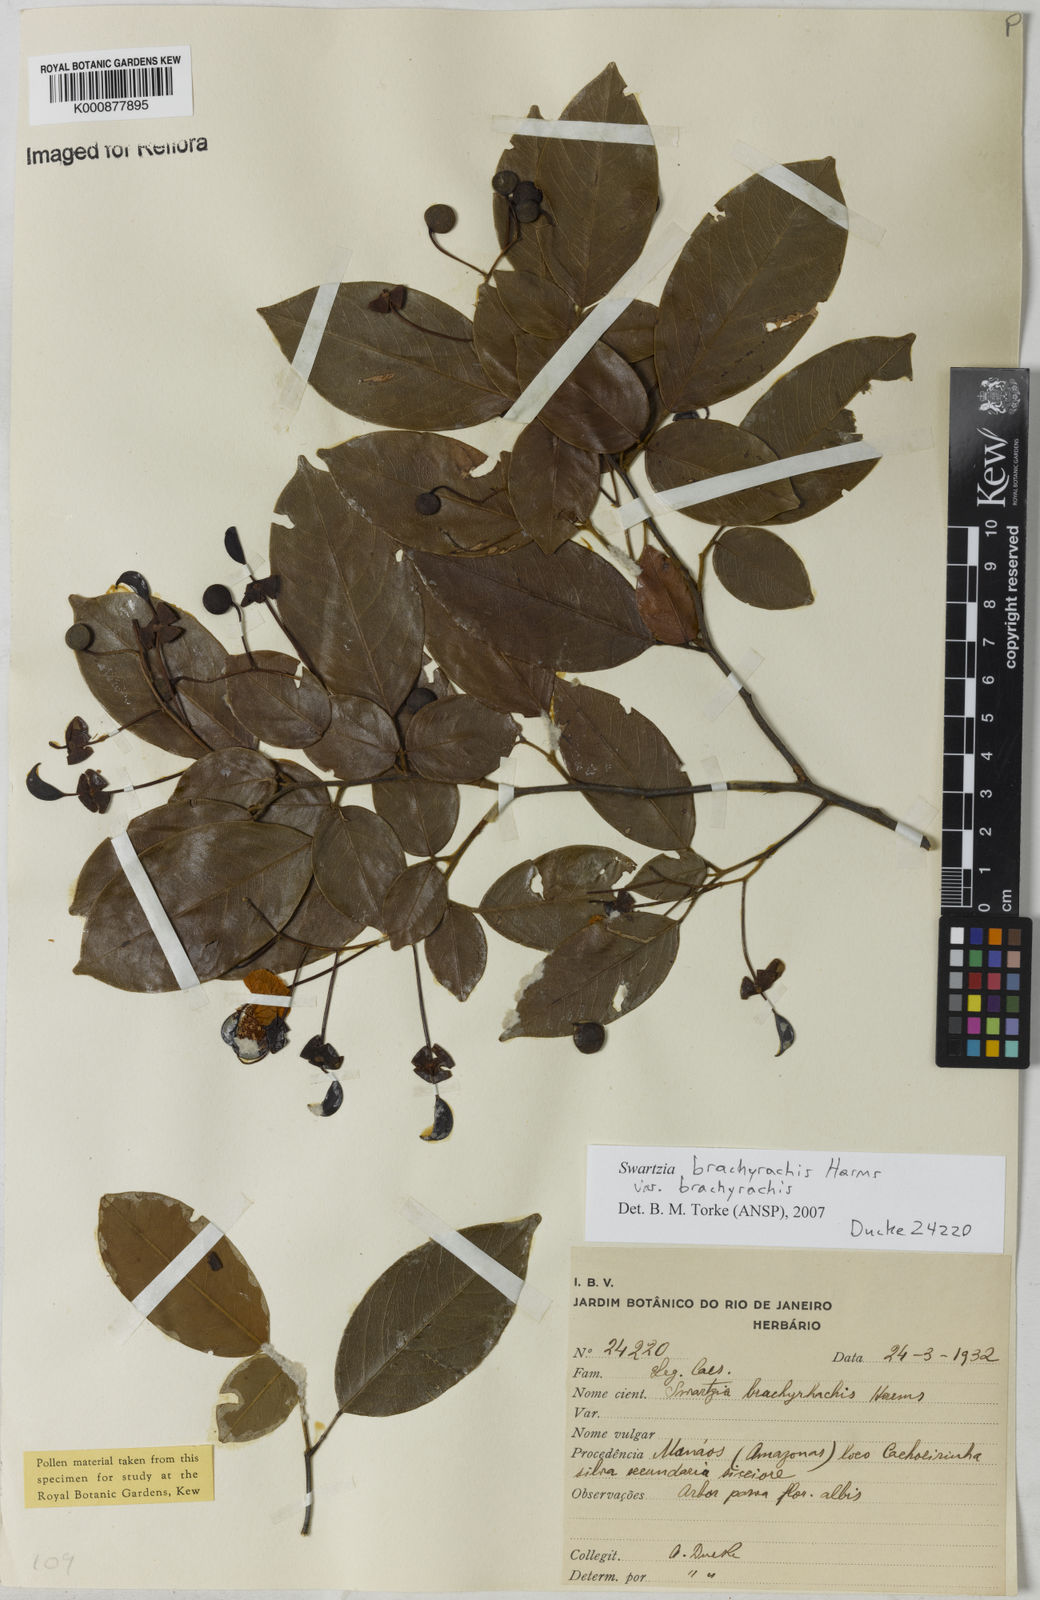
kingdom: Plantae
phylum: Tracheophyta
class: Magnoliopsida
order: Fabales
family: Fabaceae
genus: Swartzia
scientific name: Swartzia
